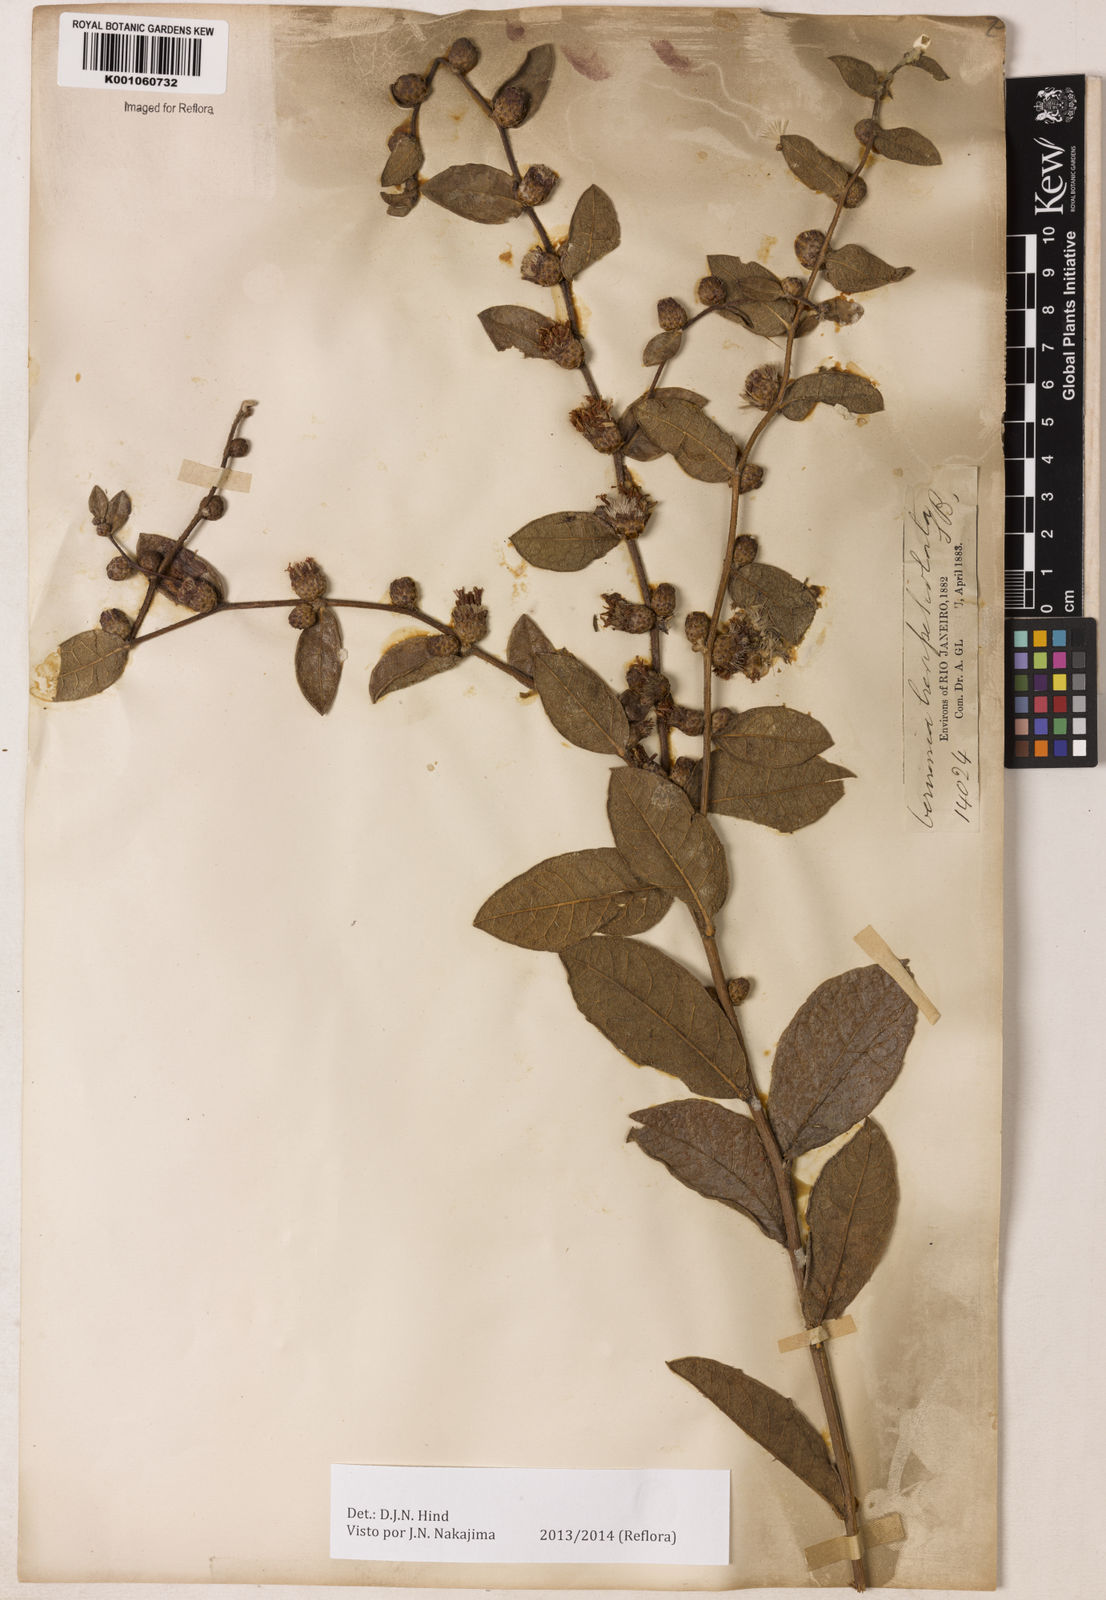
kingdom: Plantae
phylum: Tracheophyta
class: Magnoliopsida
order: Asterales
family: Asteraceae
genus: Lessingianthus
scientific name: Lessingianthus brevipetiolatus
